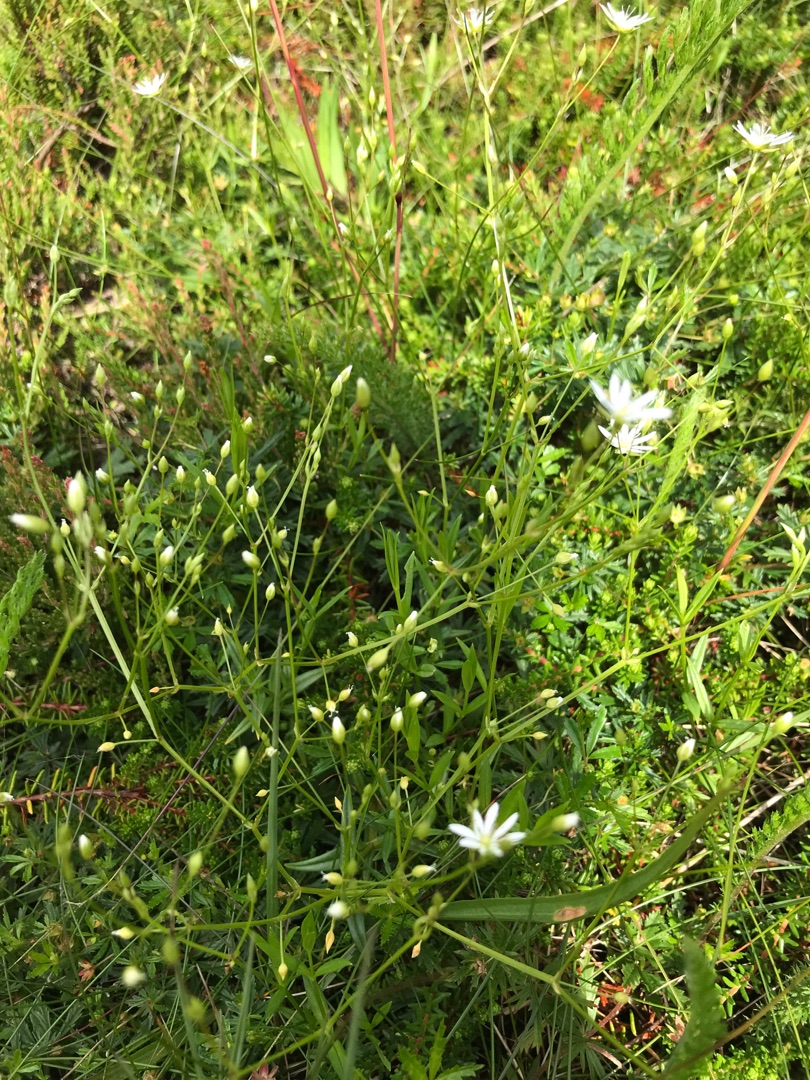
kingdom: Plantae
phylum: Tracheophyta
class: Magnoliopsida
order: Caryophyllales
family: Caryophyllaceae
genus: Stellaria
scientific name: Stellaria graminea
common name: Græsbladet fladstjerne
